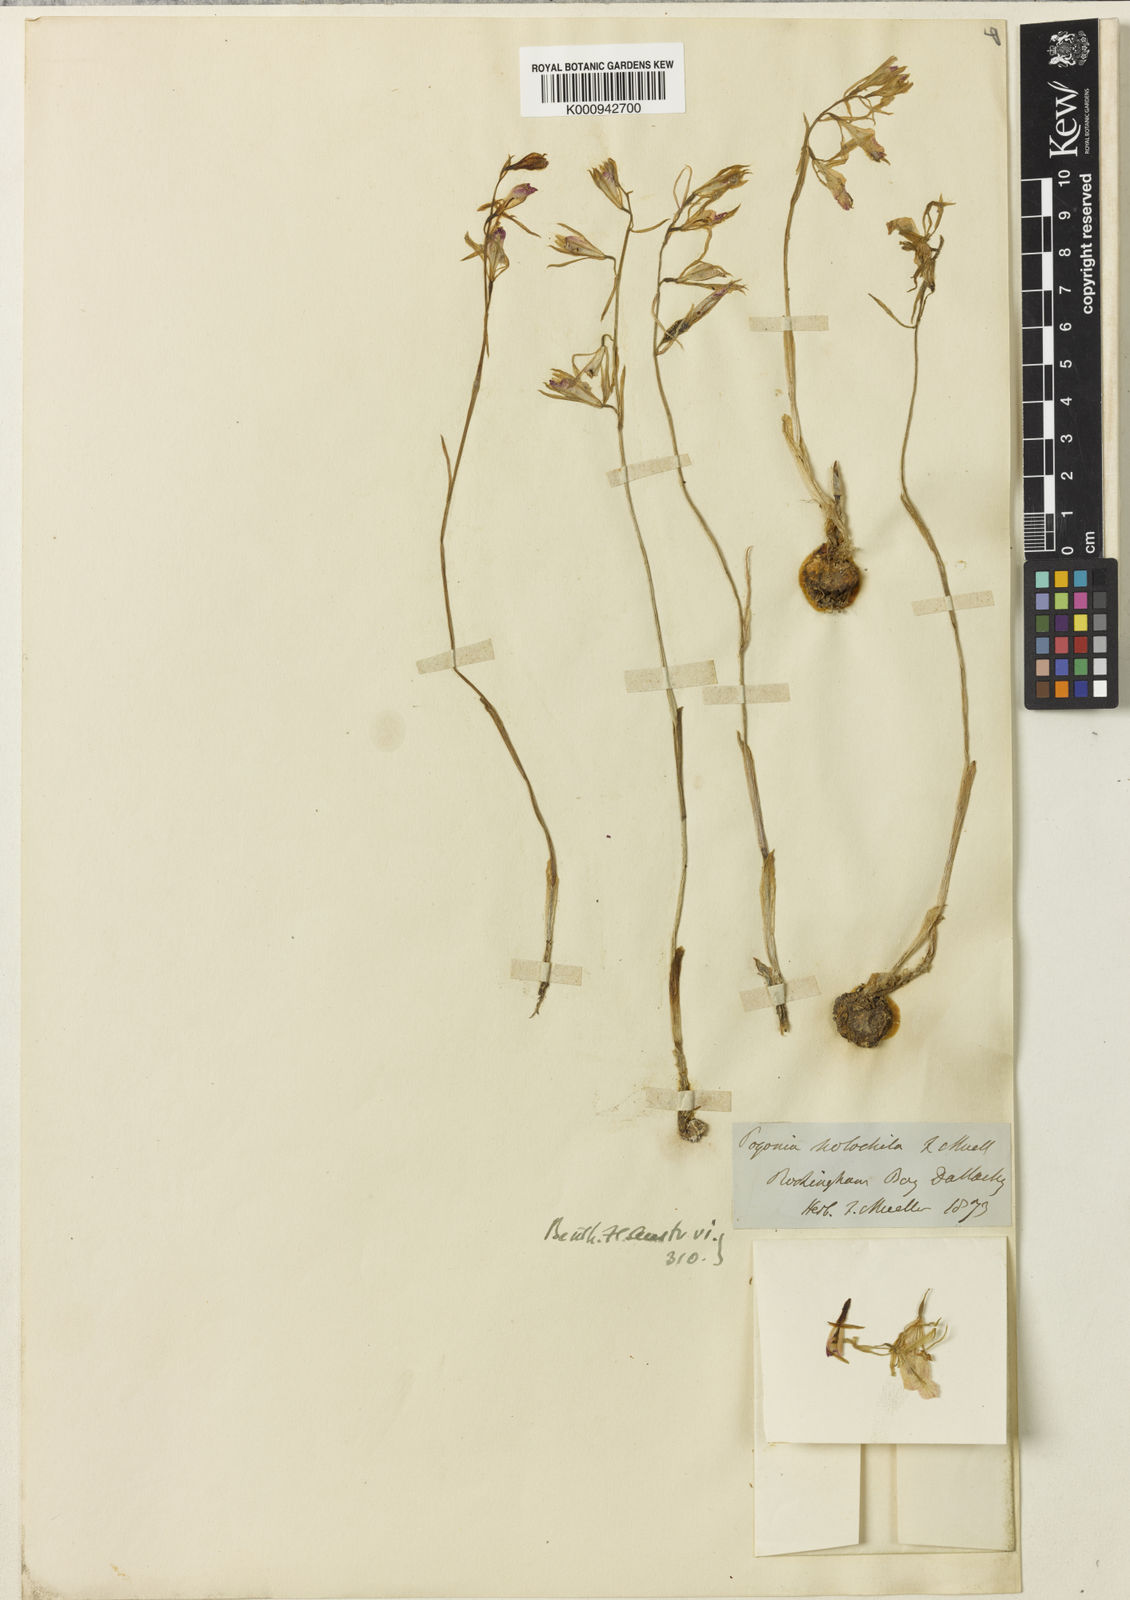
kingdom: Plantae
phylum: Tracheophyta
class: Liliopsida
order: Asparagales
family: Orchidaceae
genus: Nervilia
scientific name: Nervilia holochila
